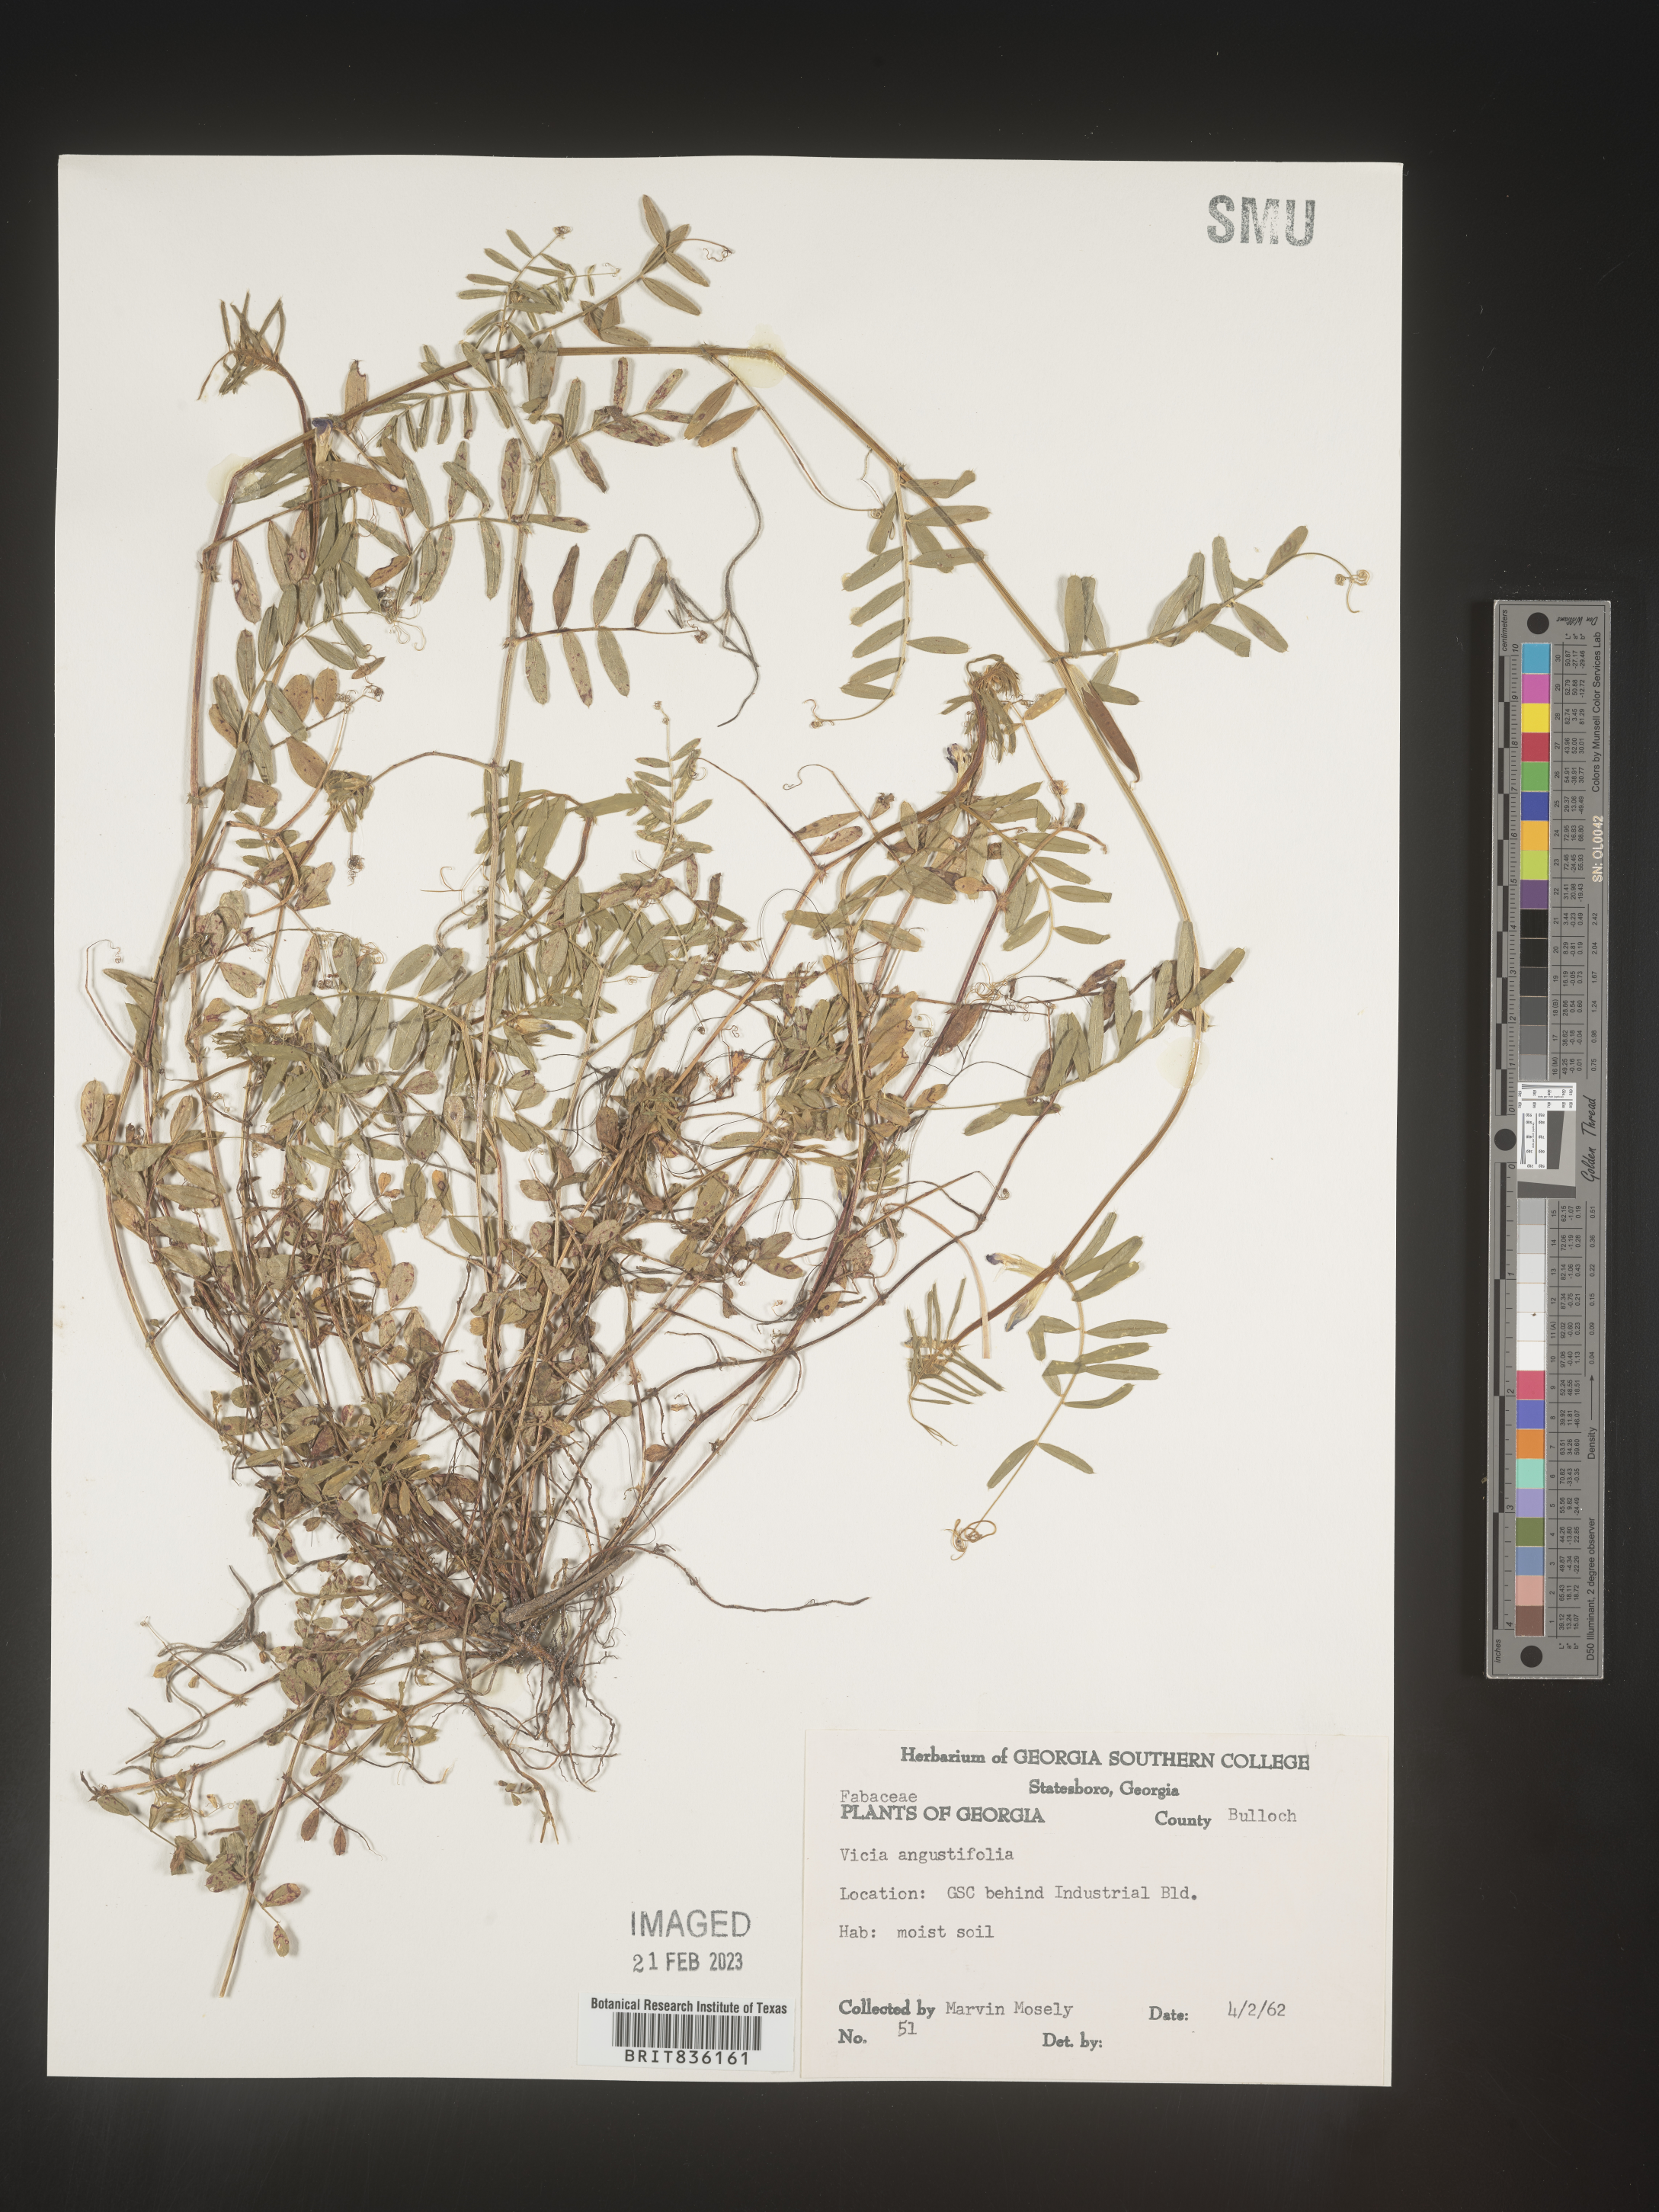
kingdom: Plantae
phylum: Tracheophyta
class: Magnoliopsida
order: Fabales
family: Fabaceae
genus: Vicia
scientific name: Vicia sativa
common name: Garden vetch
